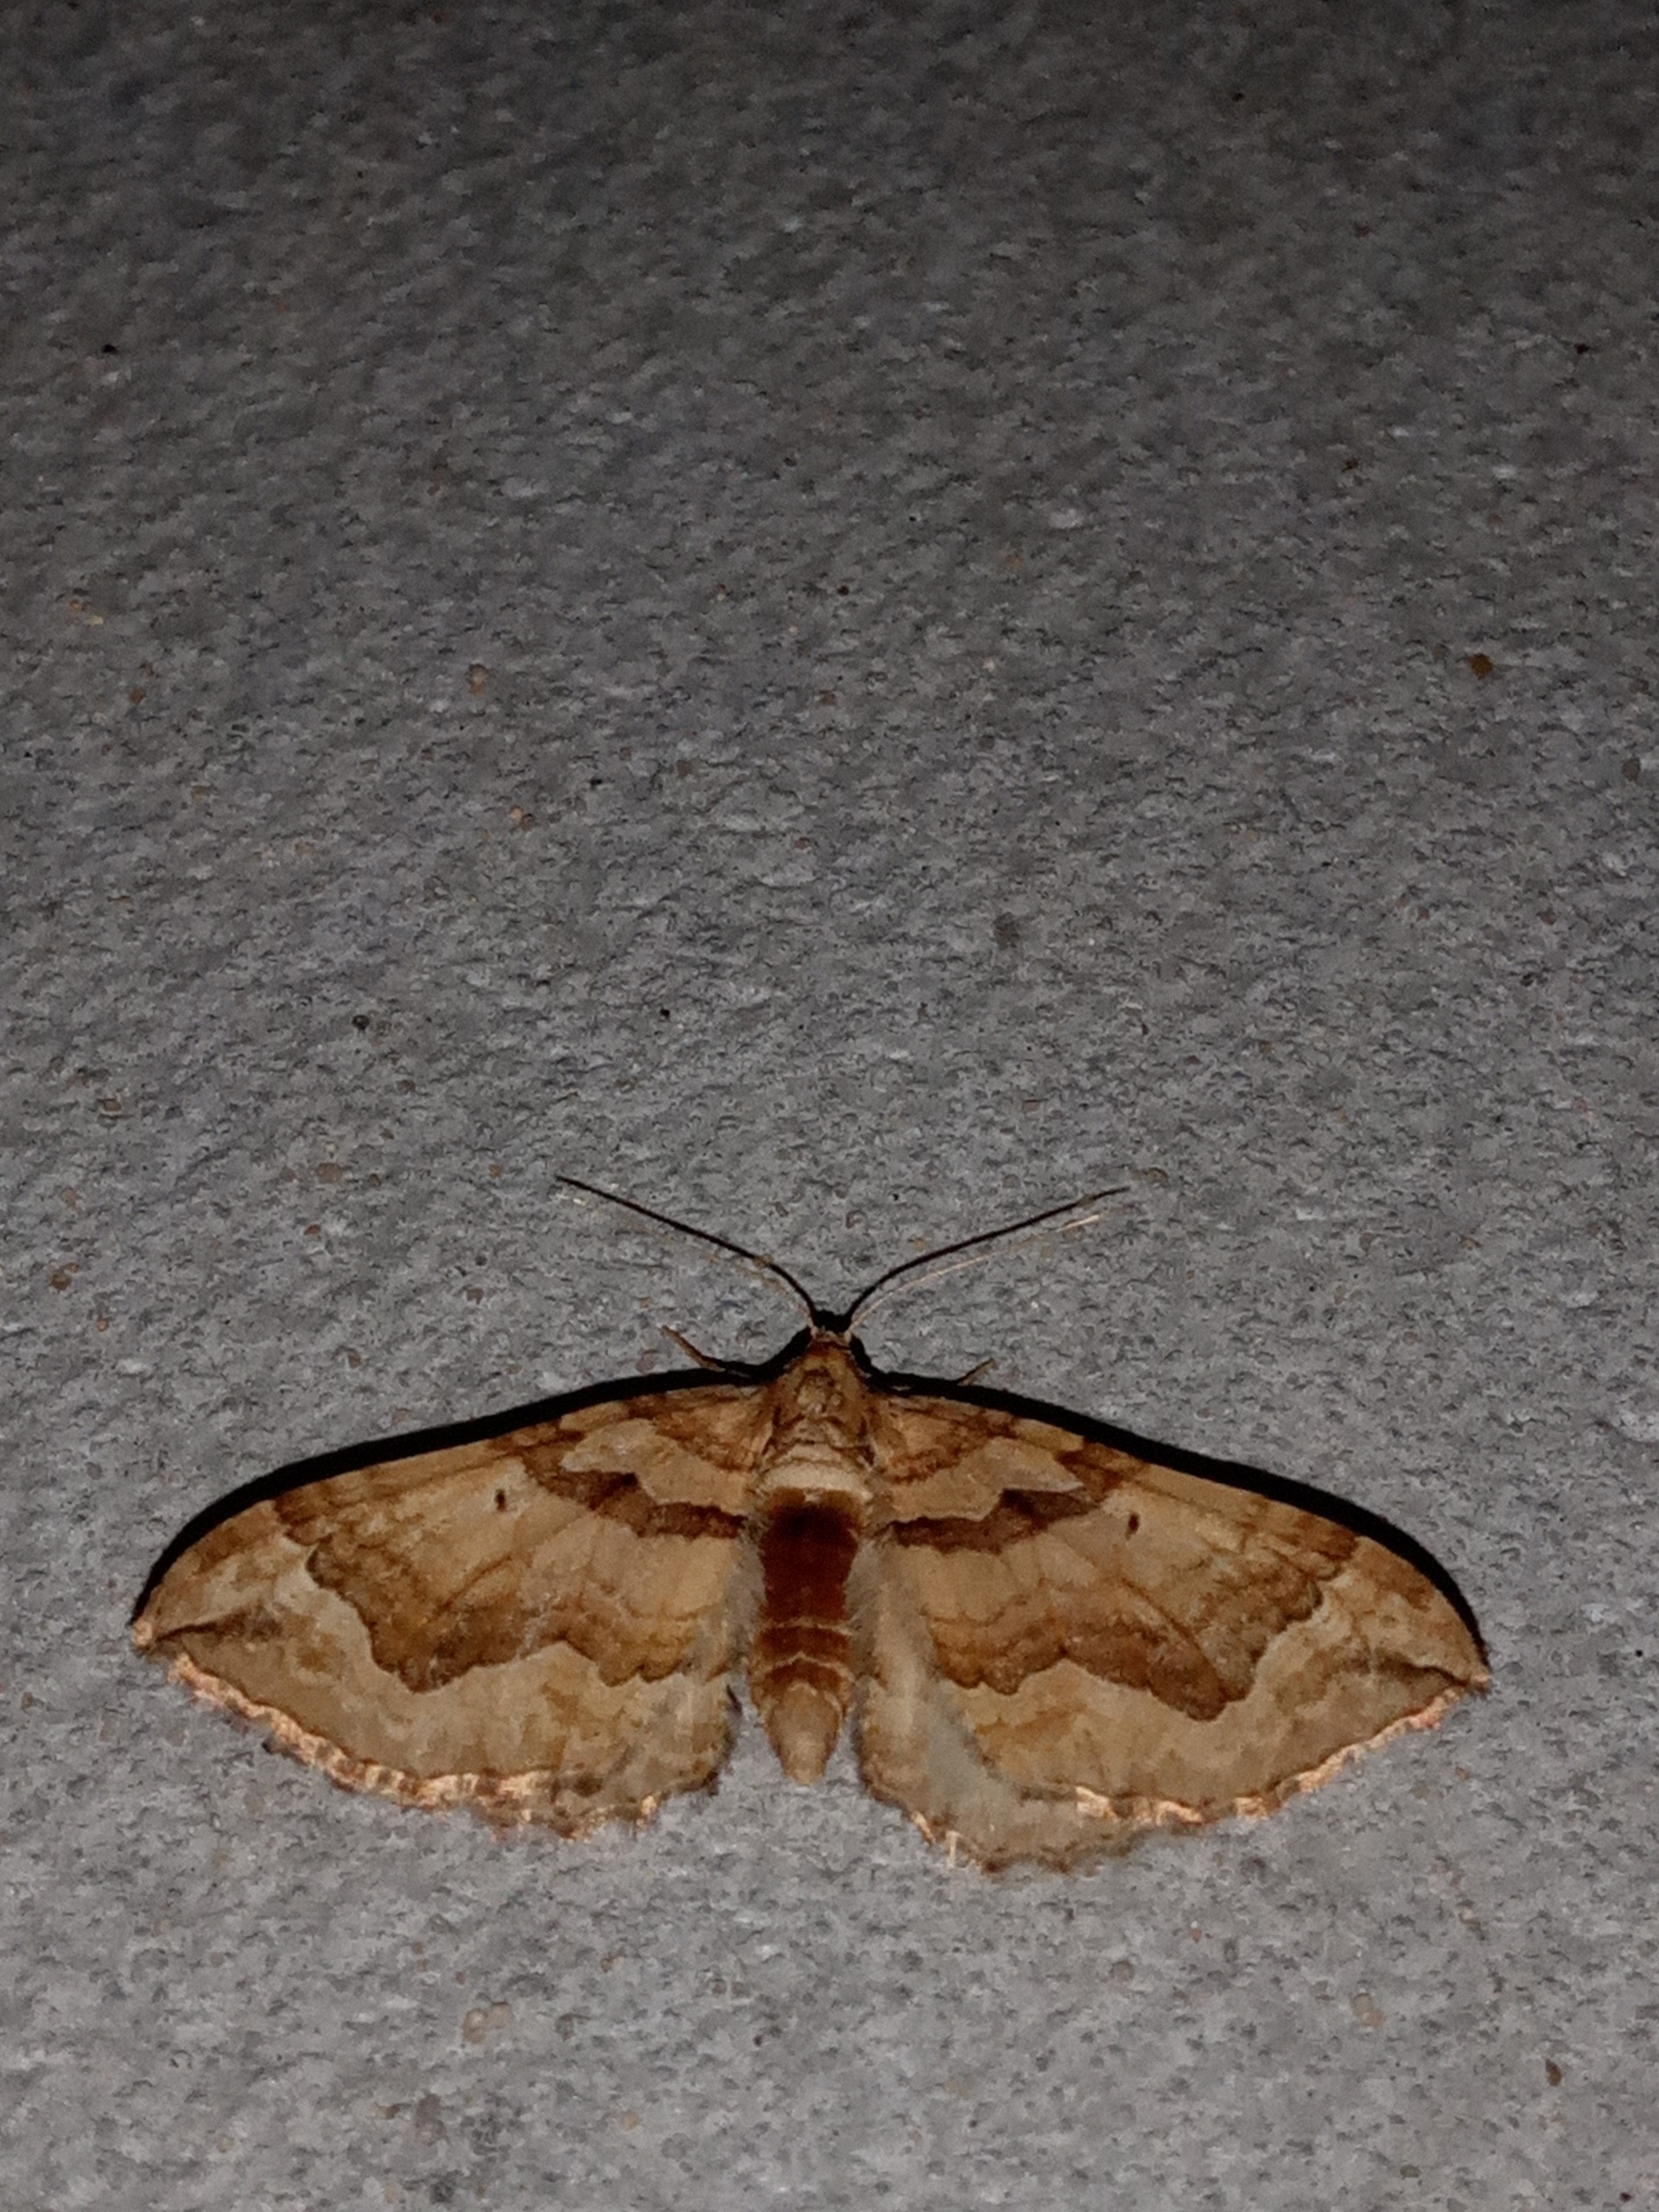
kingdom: Animalia
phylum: Arthropoda
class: Insecta
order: Lepidoptera
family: Geometridae
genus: Pelurga
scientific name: Pelurga comitata
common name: Gåsefod-bladmåler
